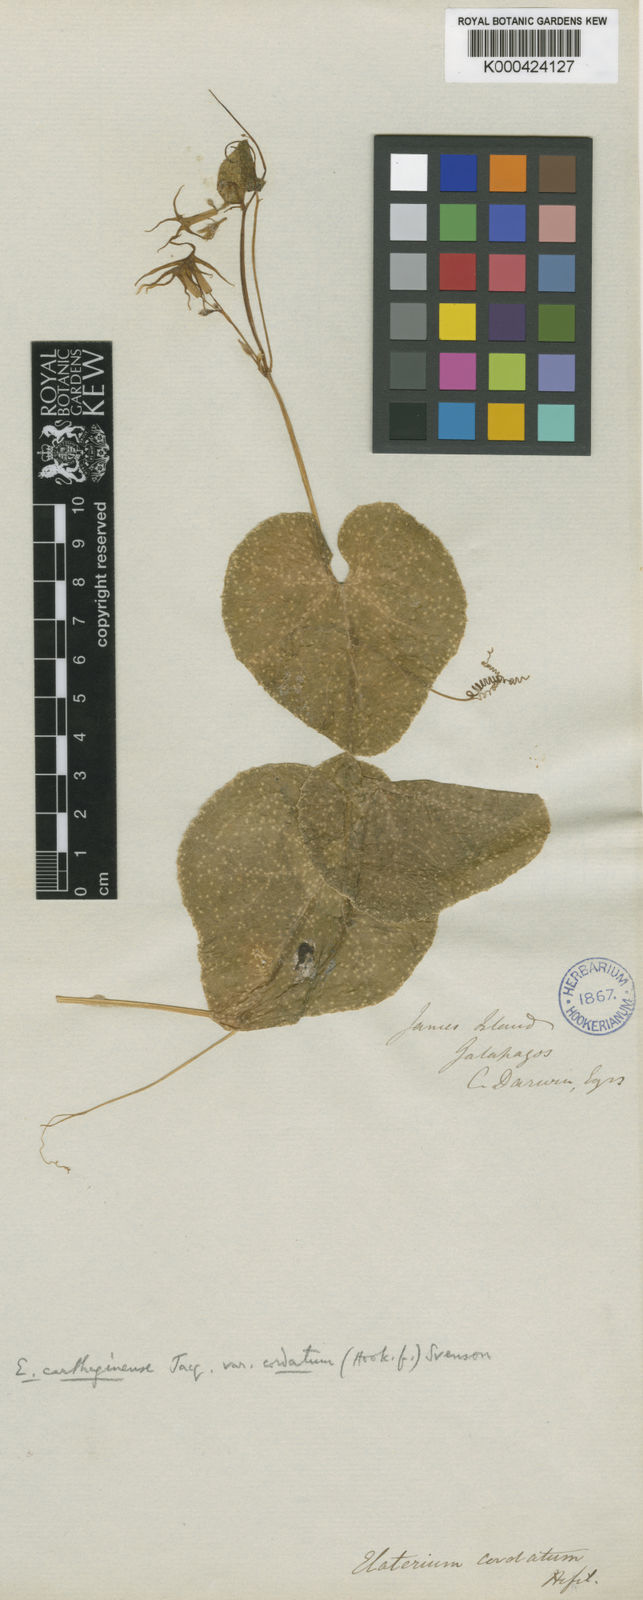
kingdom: Plantae
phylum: Tracheophyta
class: Magnoliopsida
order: Cucurbitales
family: Cucurbitaceae
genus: Cyclanthera
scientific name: Cyclanthera carthagenensis
